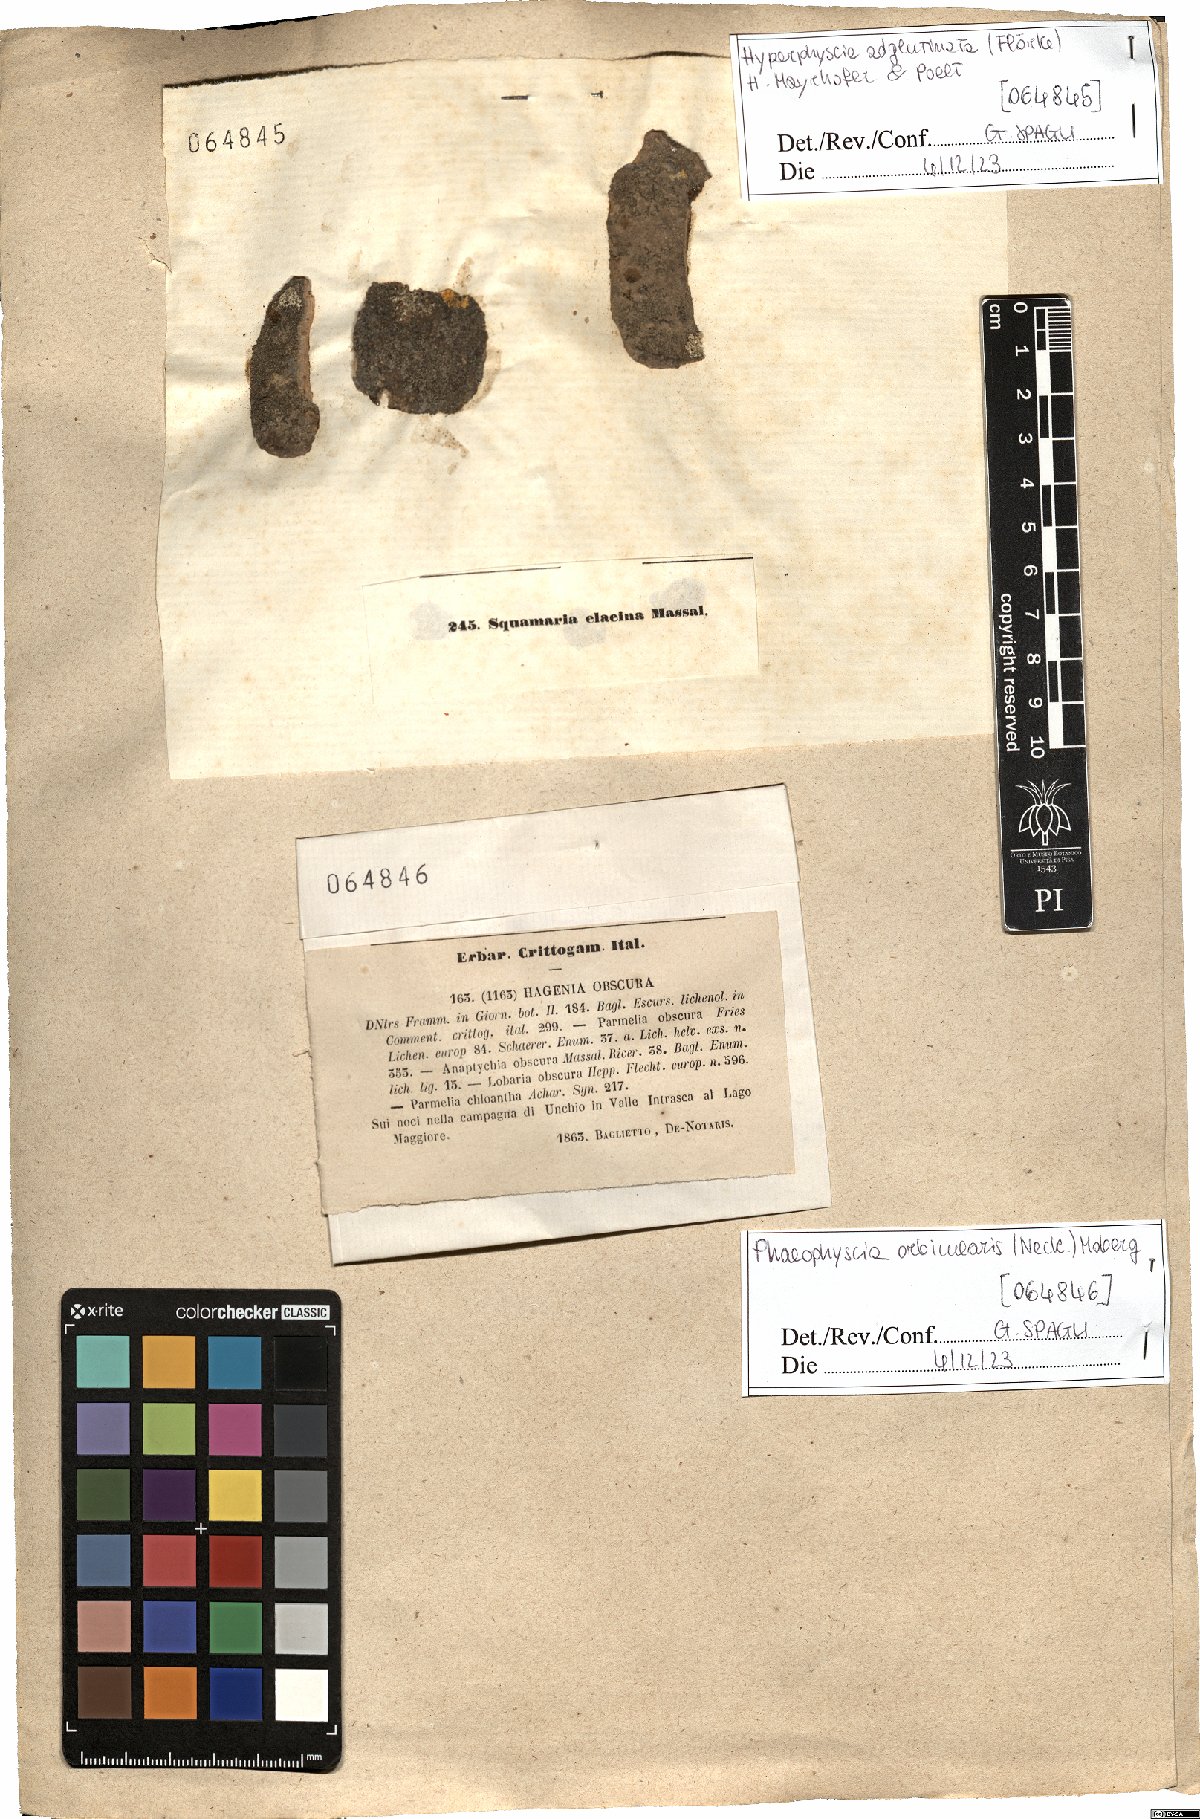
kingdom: Fungi
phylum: Ascomycota
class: Lecanoromycetes
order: Caliciales
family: Physciaceae
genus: Hyperphyscia
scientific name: Hyperphyscia adglutinata
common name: Grainy shadow-crust lichen
